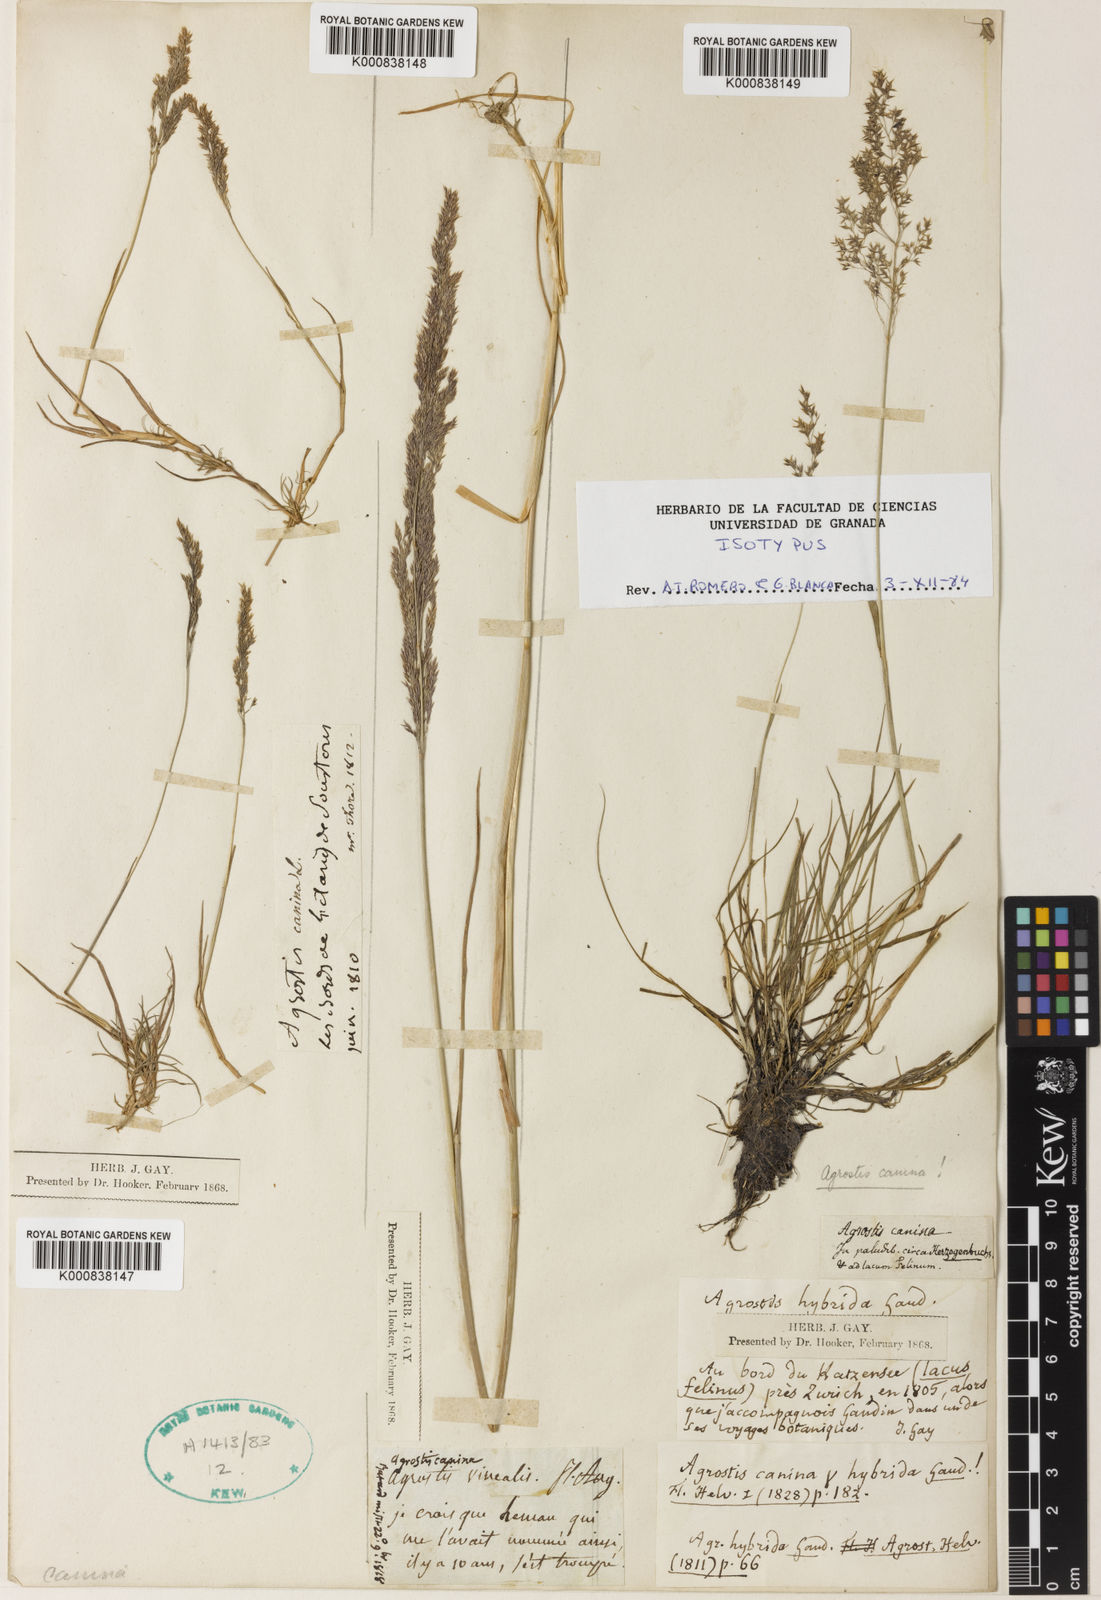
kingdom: Plantae
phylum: Tracheophyta
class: Liliopsida
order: Poales
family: Poaceae
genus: Agrostis
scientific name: Agrostis vinealis
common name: Brown bent
